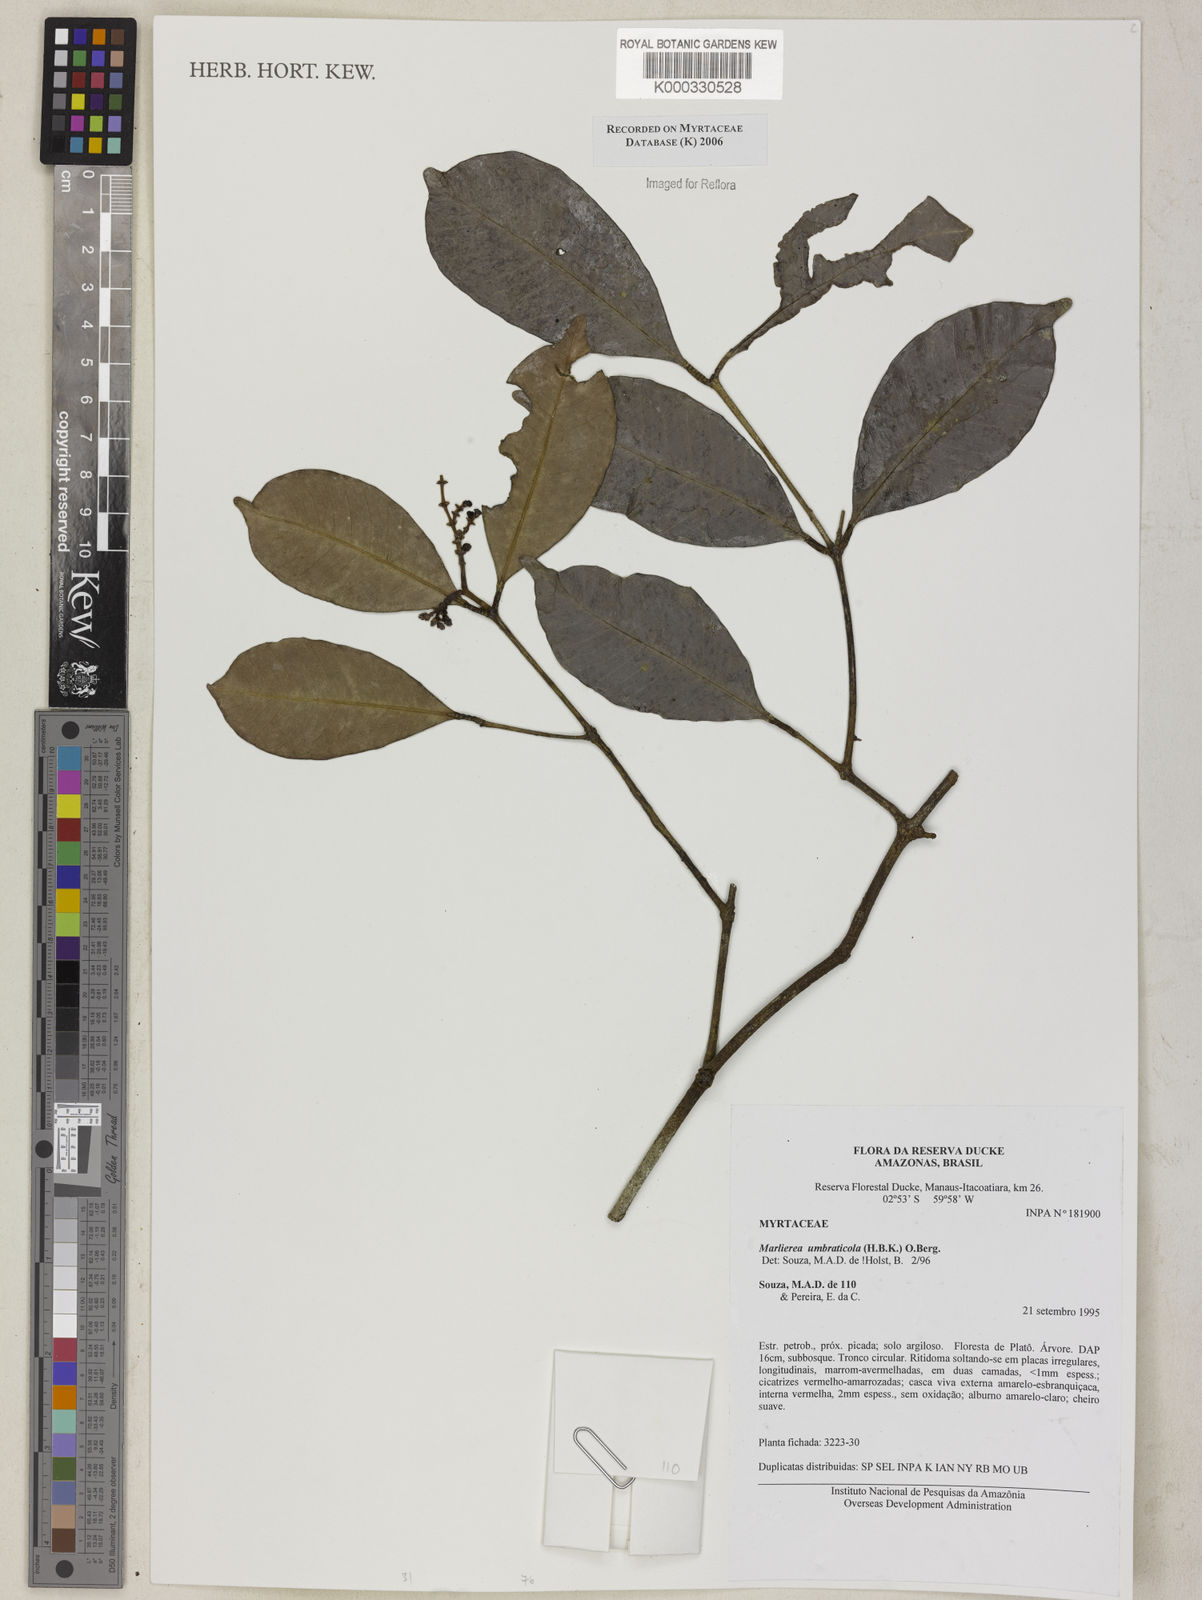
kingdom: Plantae
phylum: Tracheophyta
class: Magnoliopsida
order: Myrtales
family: Myrtaceae
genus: Myrcia
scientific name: Myrcia umbraticola
